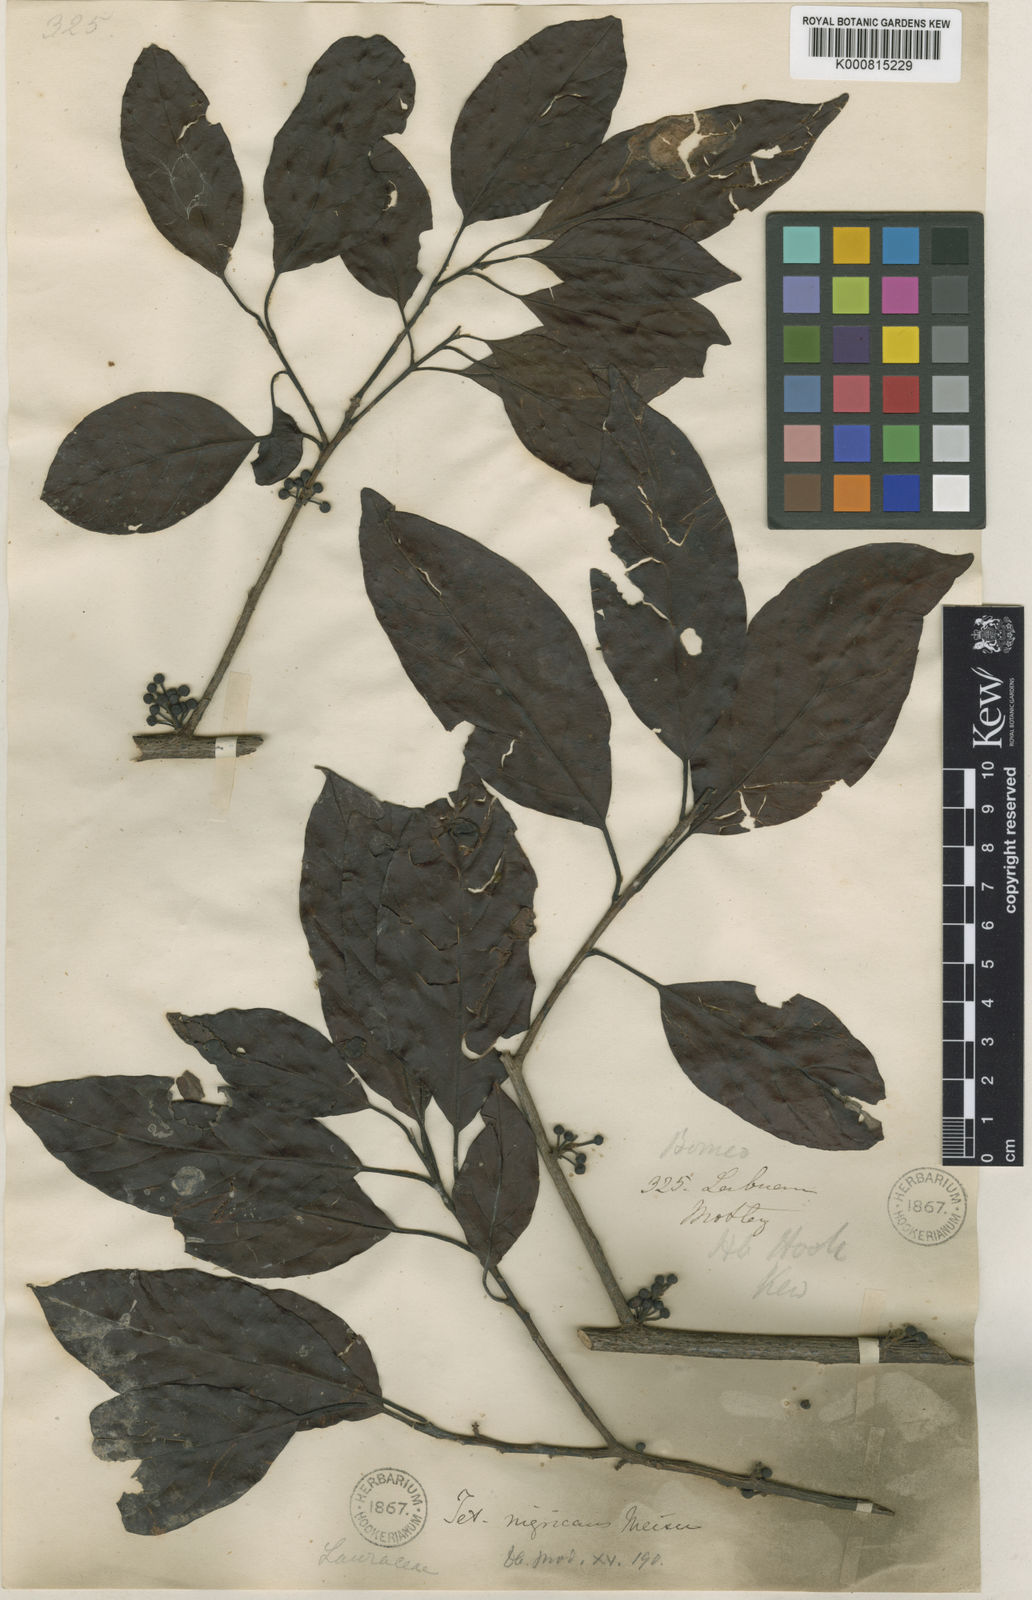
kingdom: Plantae
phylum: Tracheophyta
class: Magnoliopsida
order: Laurales
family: Lauraceae
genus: Litsea
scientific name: Litsea elliptica
